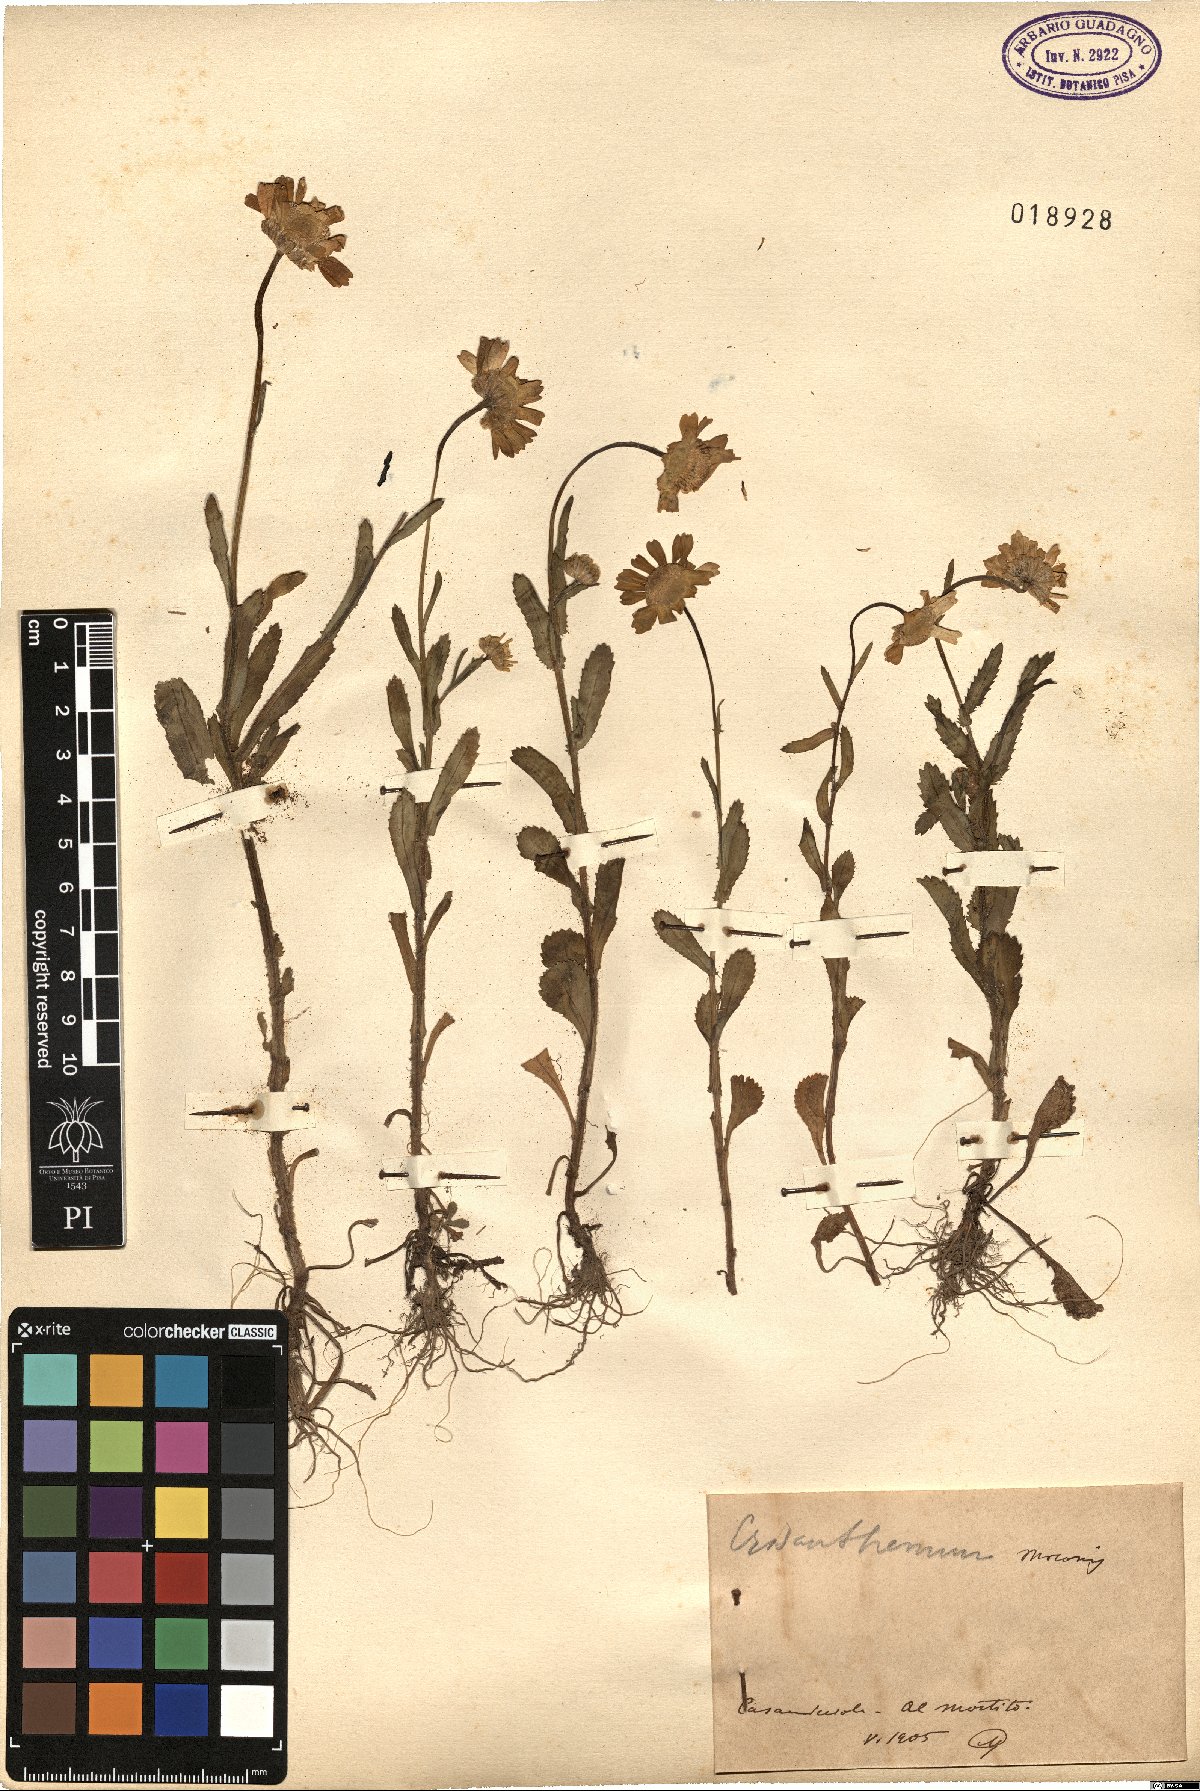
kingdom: Plantae
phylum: Tracheophyta
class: Magnoliopsida
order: Asterales
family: Asteraceae
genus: Coleostephus
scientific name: Coleostephus myconis
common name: Mediterranean marigold
